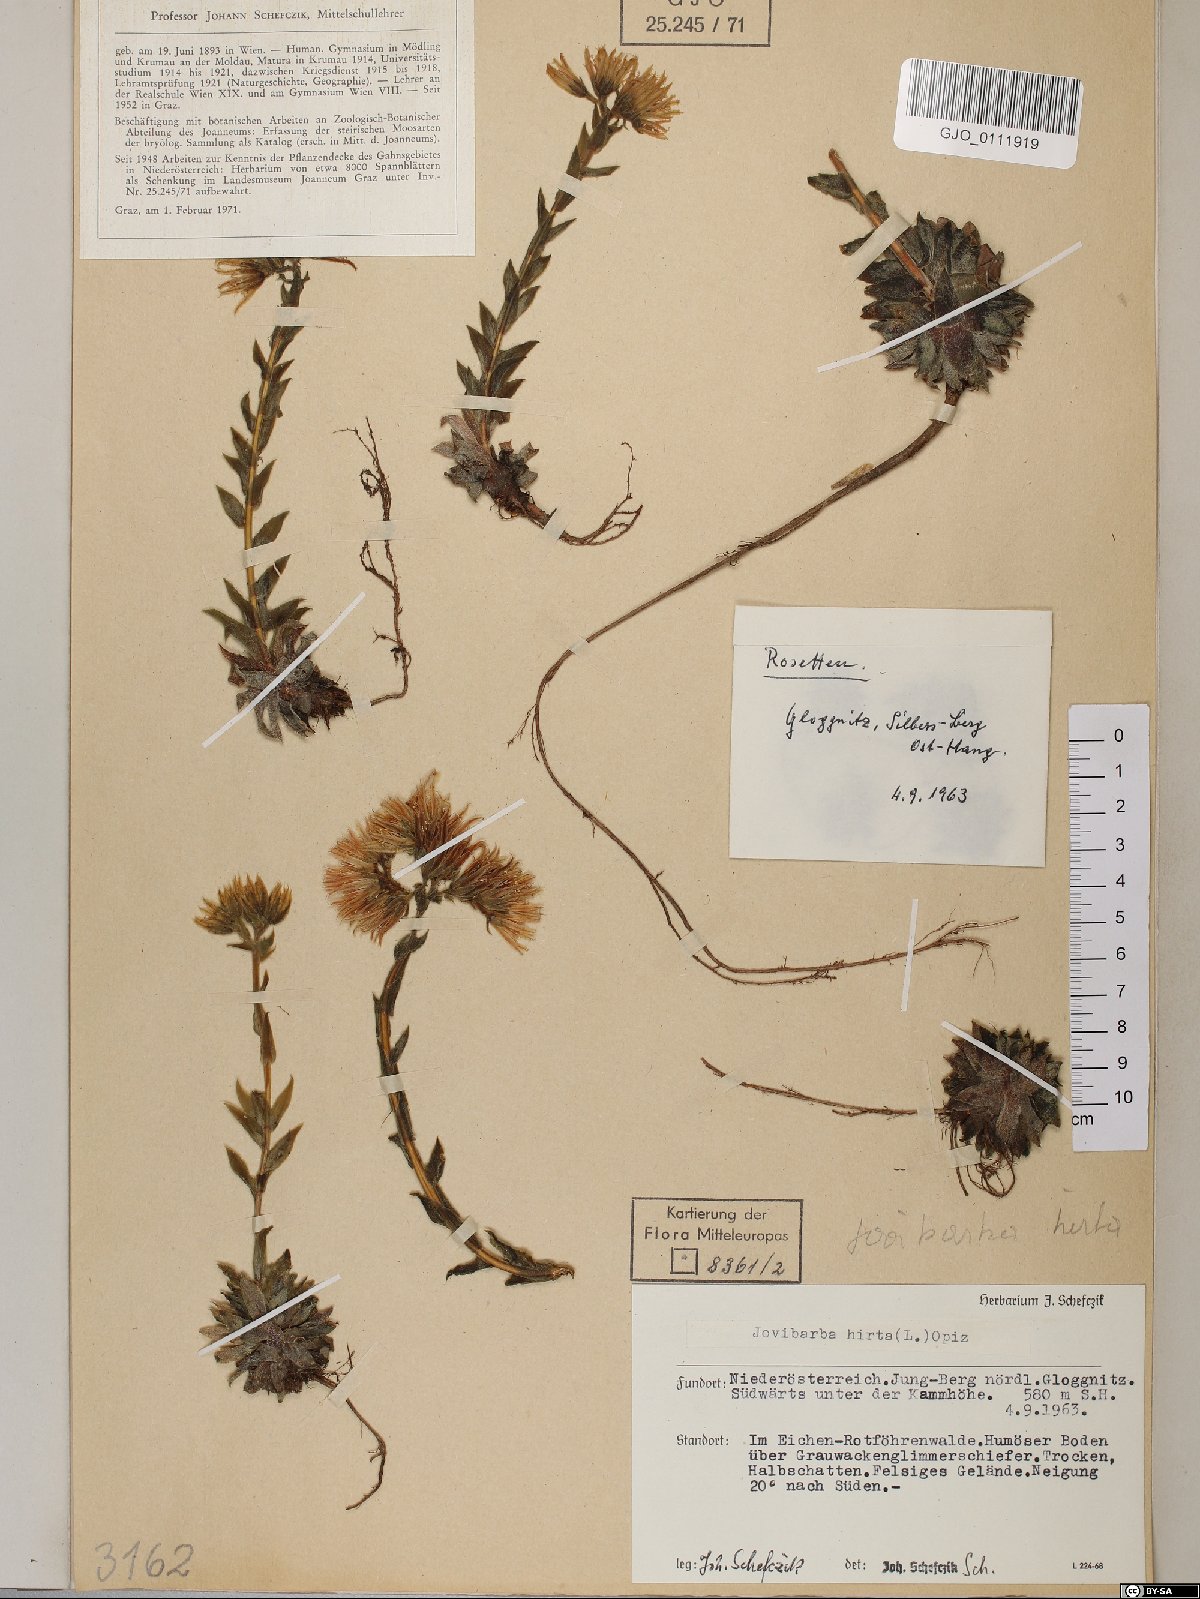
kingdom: Plantae
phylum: Tracheophyta
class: Magnoliopsida
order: Saxifragales
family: Crassulaceae
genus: Sempervivum
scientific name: Sempervivum globiferum
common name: Rolling hen-and-chicks
